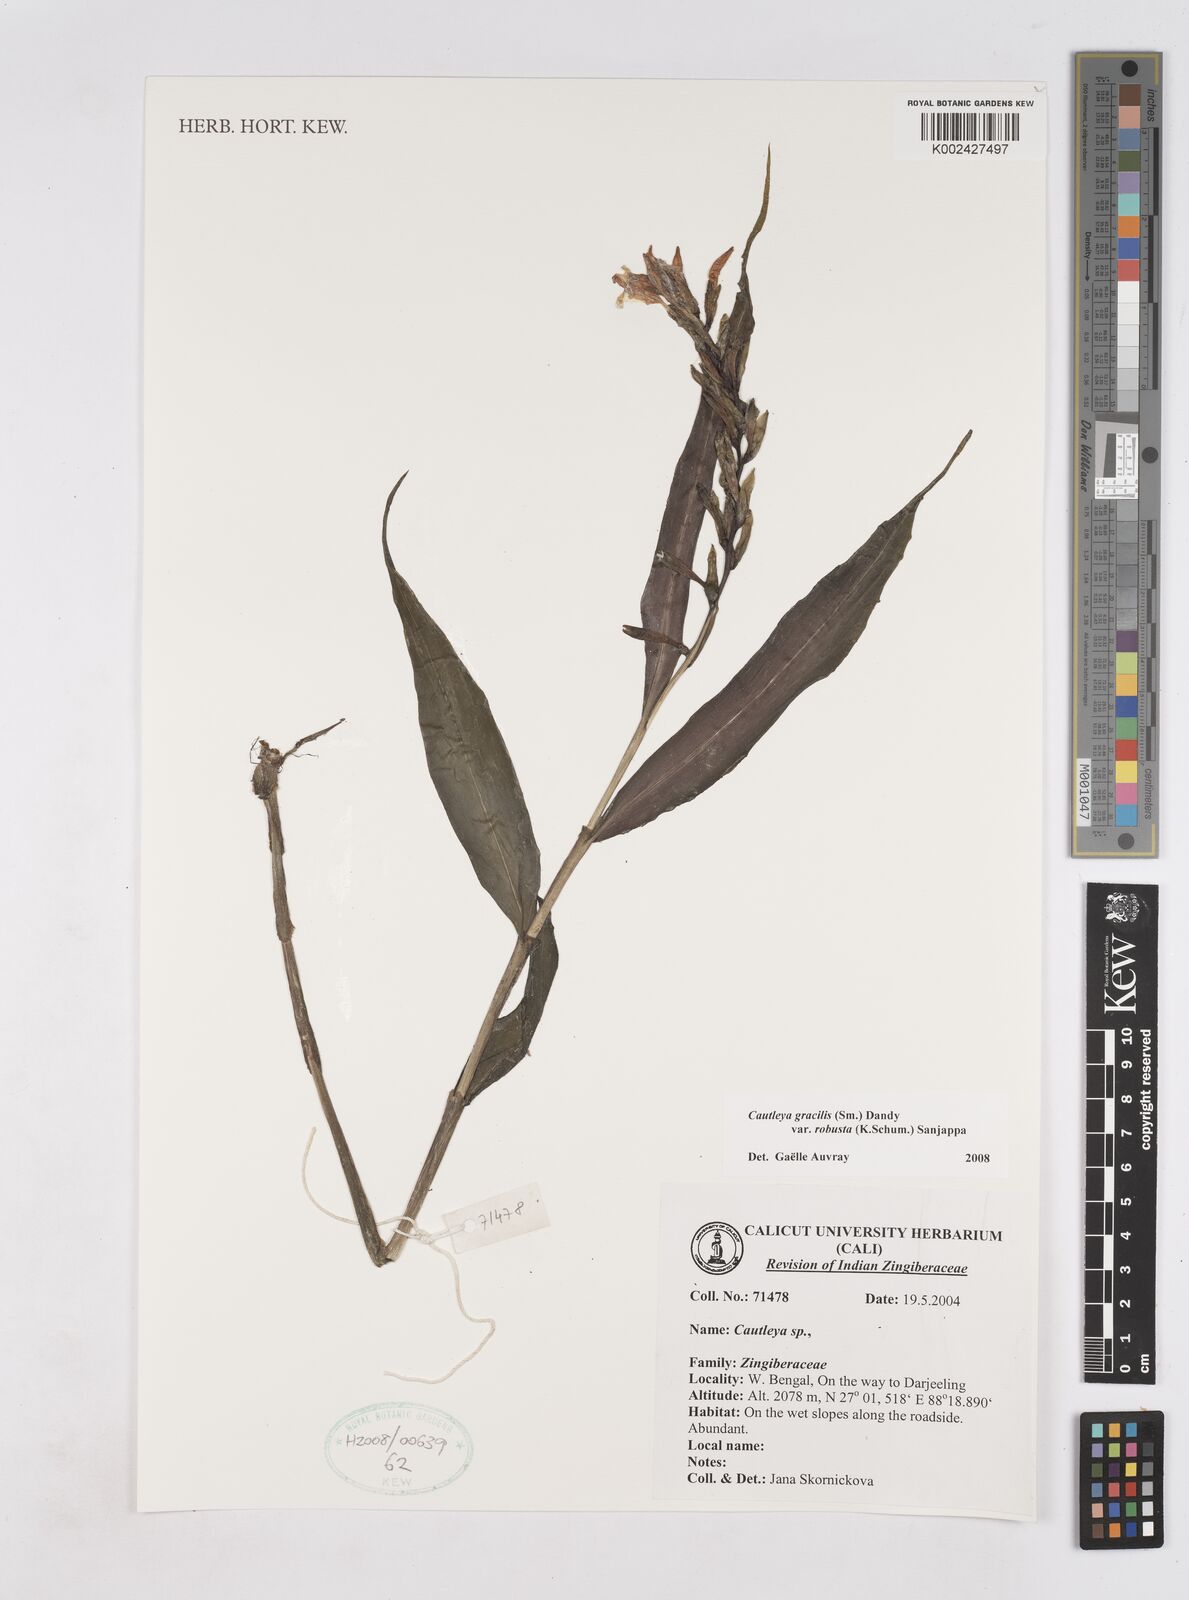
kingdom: Plantae
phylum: Tracheophyta
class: Liliopsida
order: Zingiberales
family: Zingiberaceae
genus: Cautleya
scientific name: Cautleya gracilis
